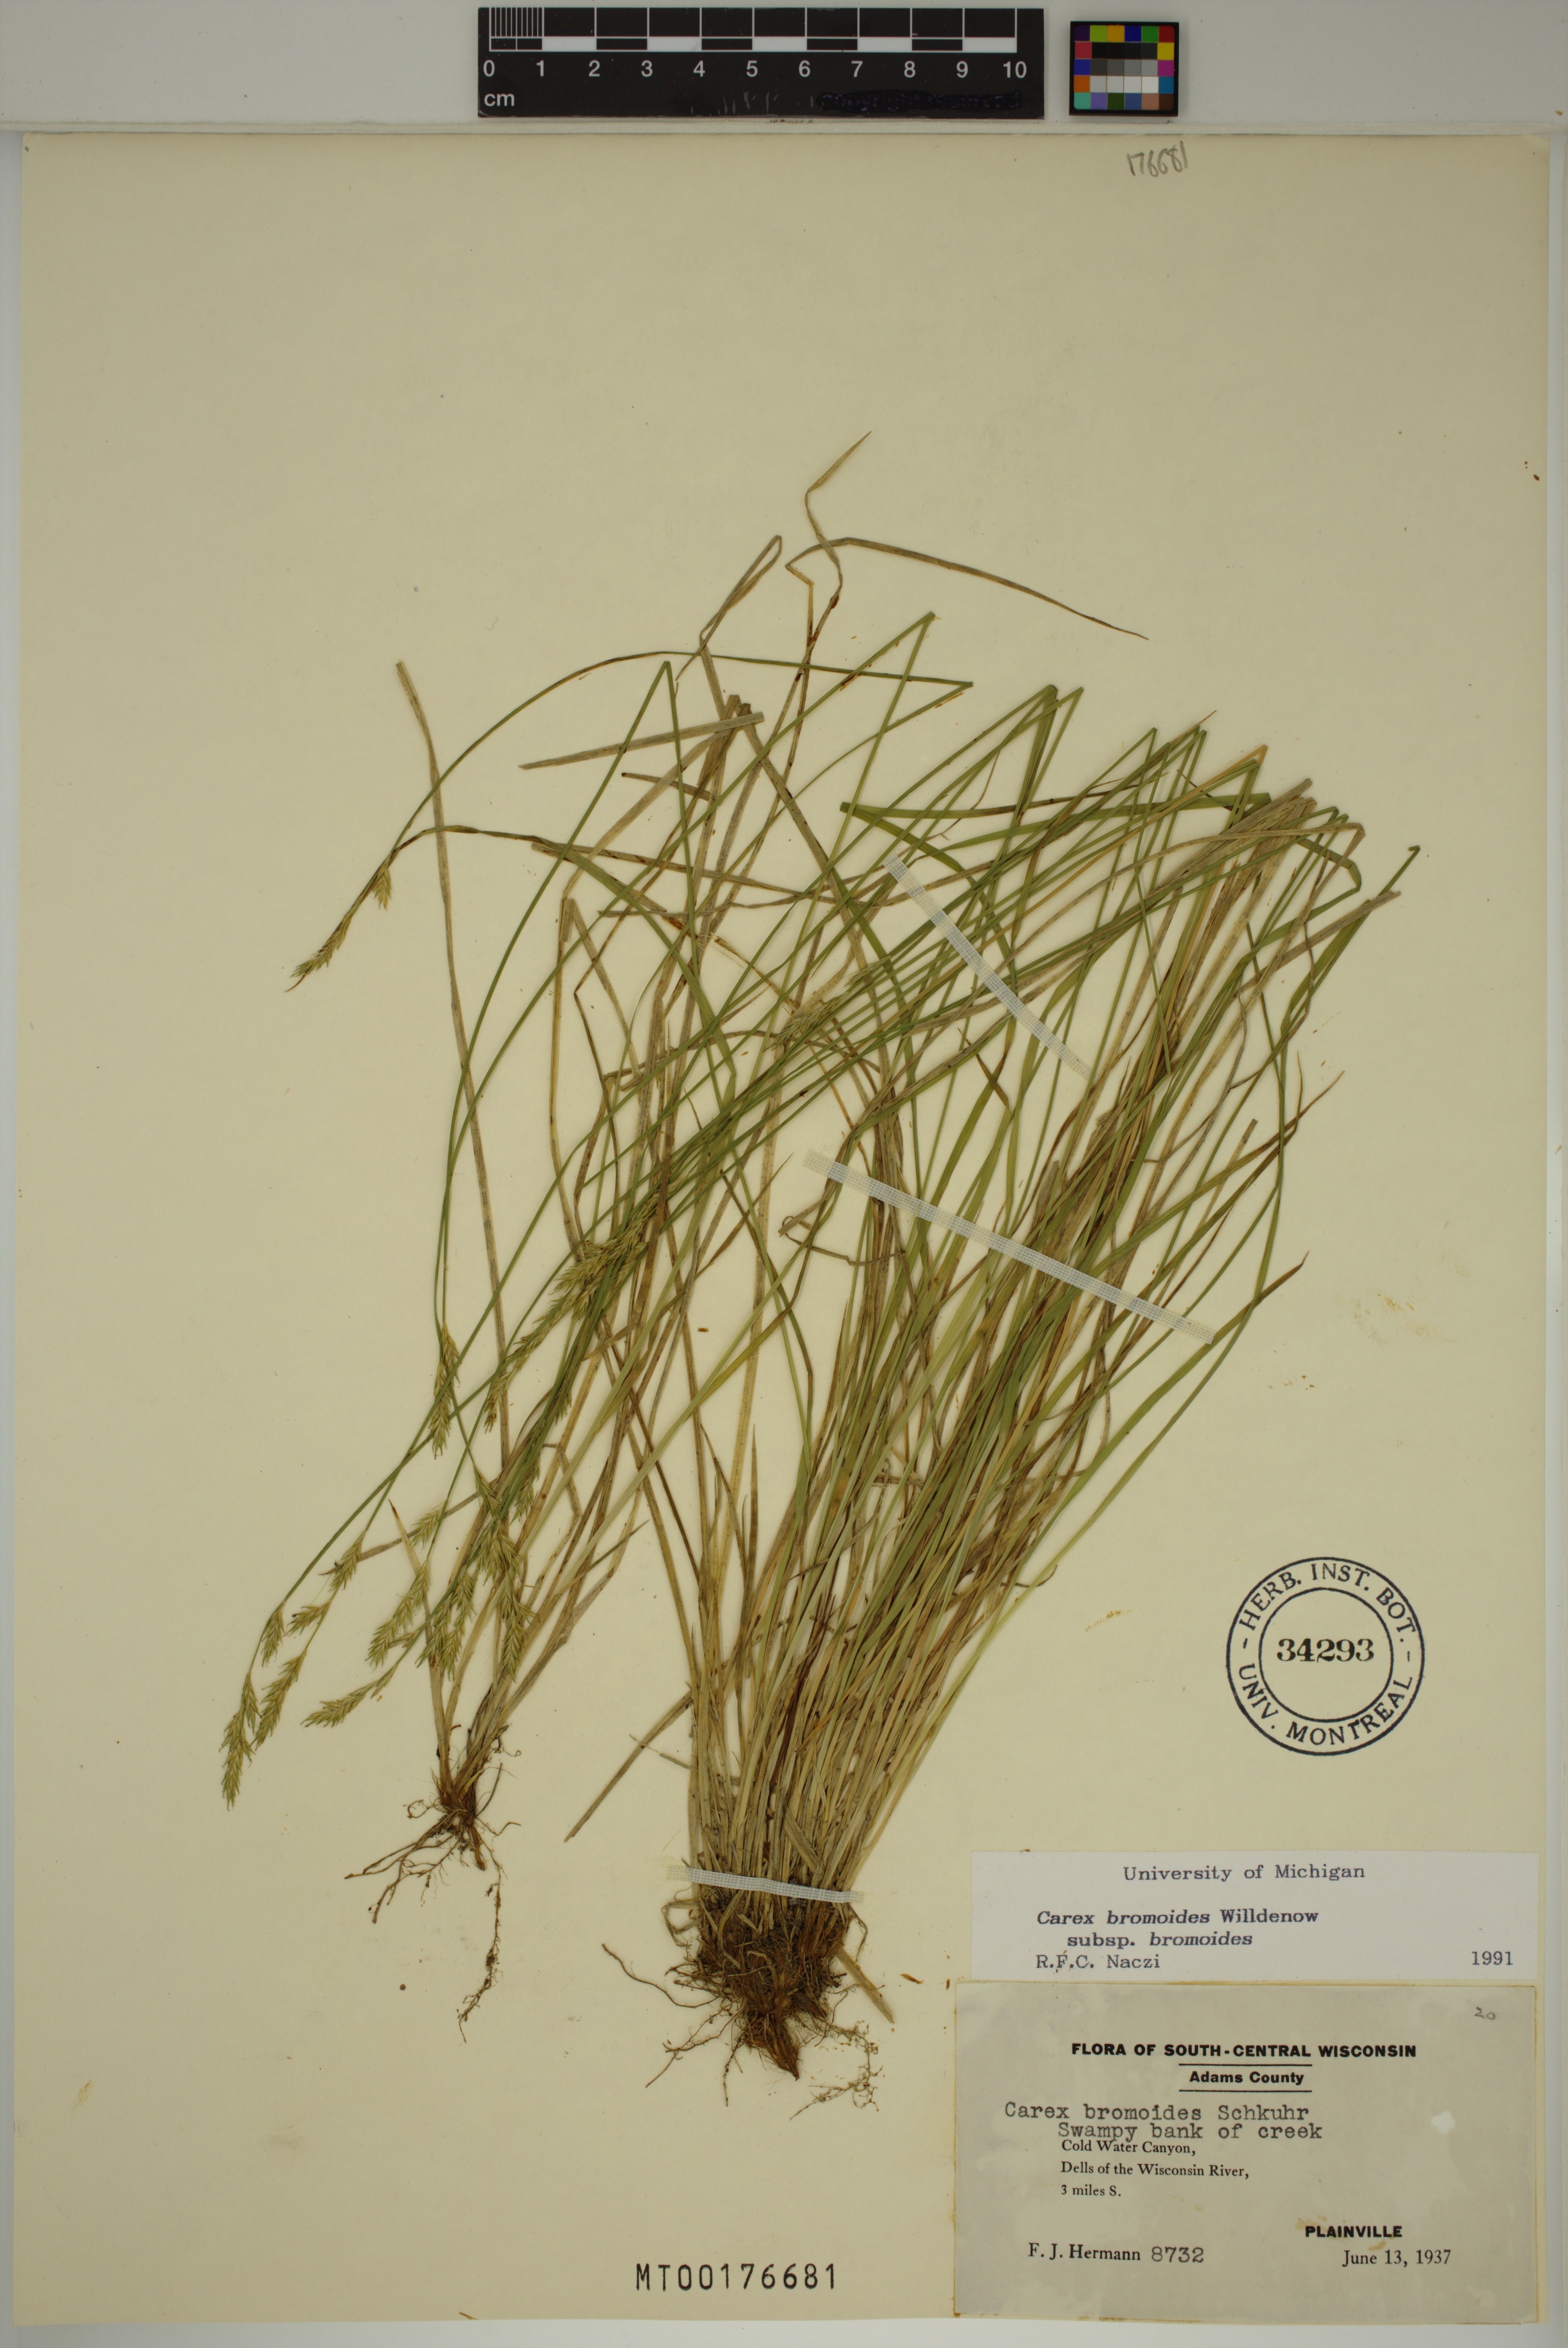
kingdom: Plantae
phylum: Tracheophyta
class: Liliopsida
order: Poales
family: Cyperaceae
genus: Carex
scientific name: Carex bromoides
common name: Brome hummock sedge
